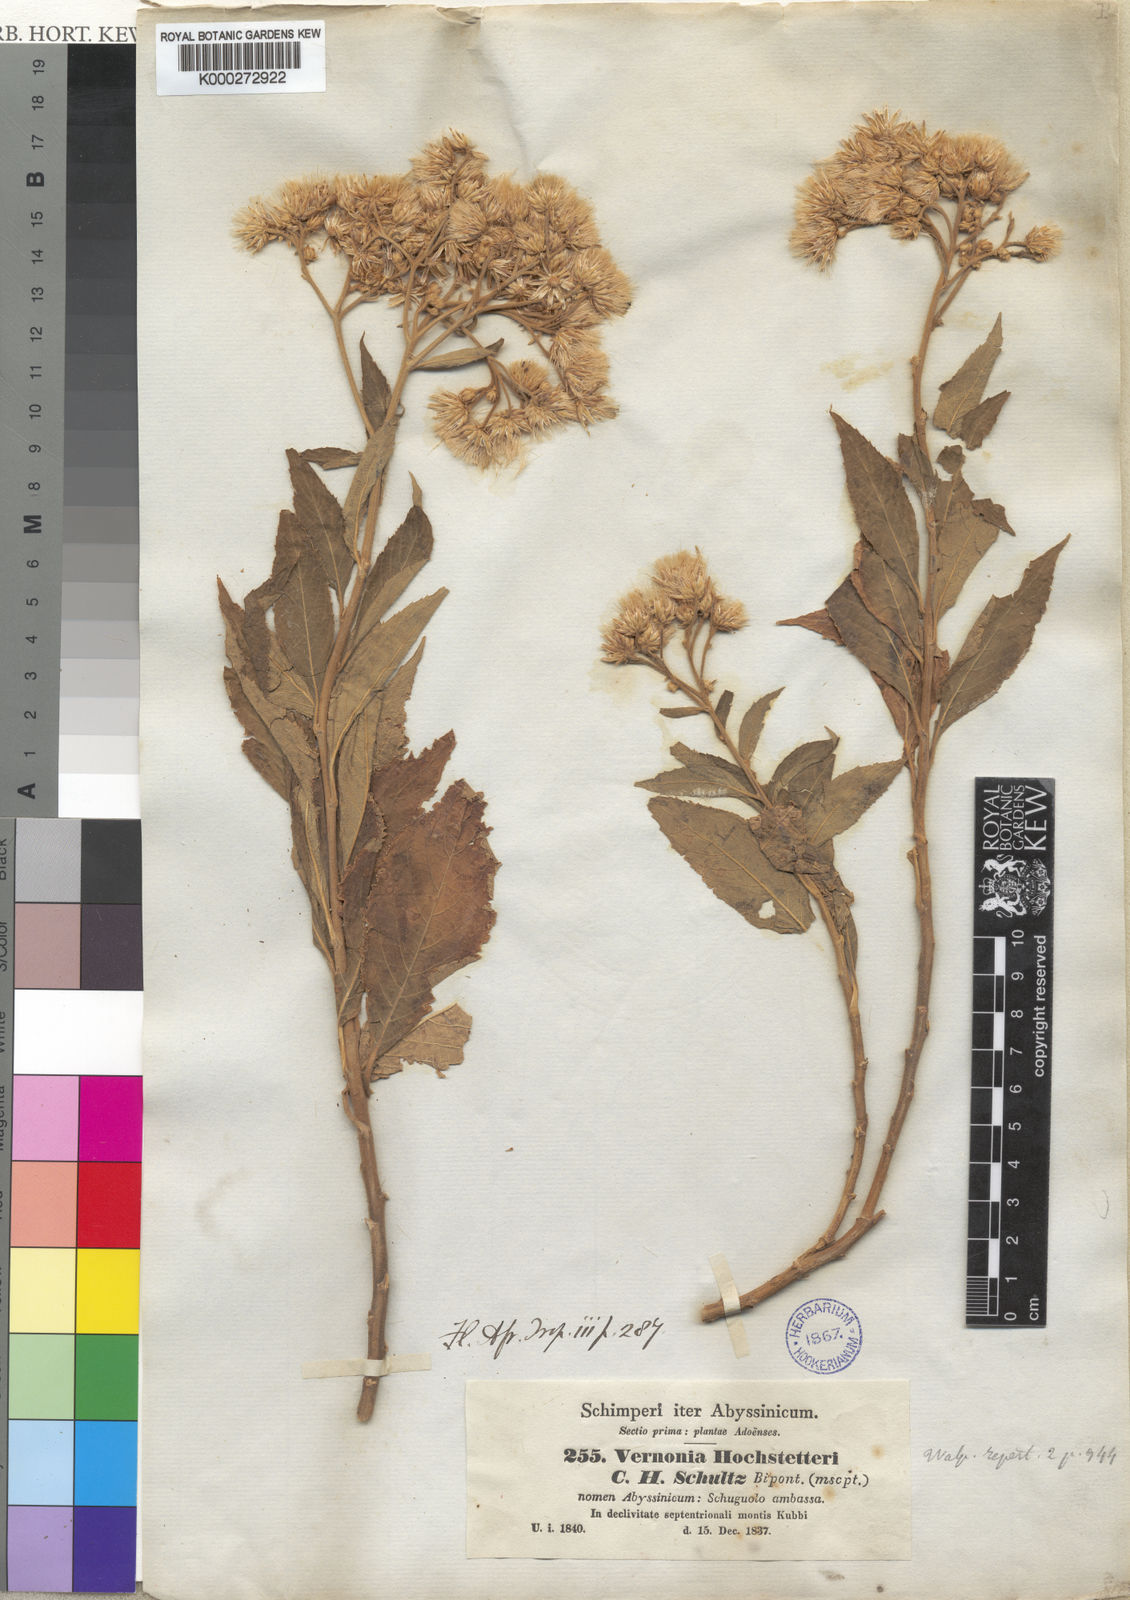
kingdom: Plantae
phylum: Tracheophyta
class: Magnoliopsida
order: Asterales
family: Asteraceae
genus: Vernonia
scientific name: Vernonia
